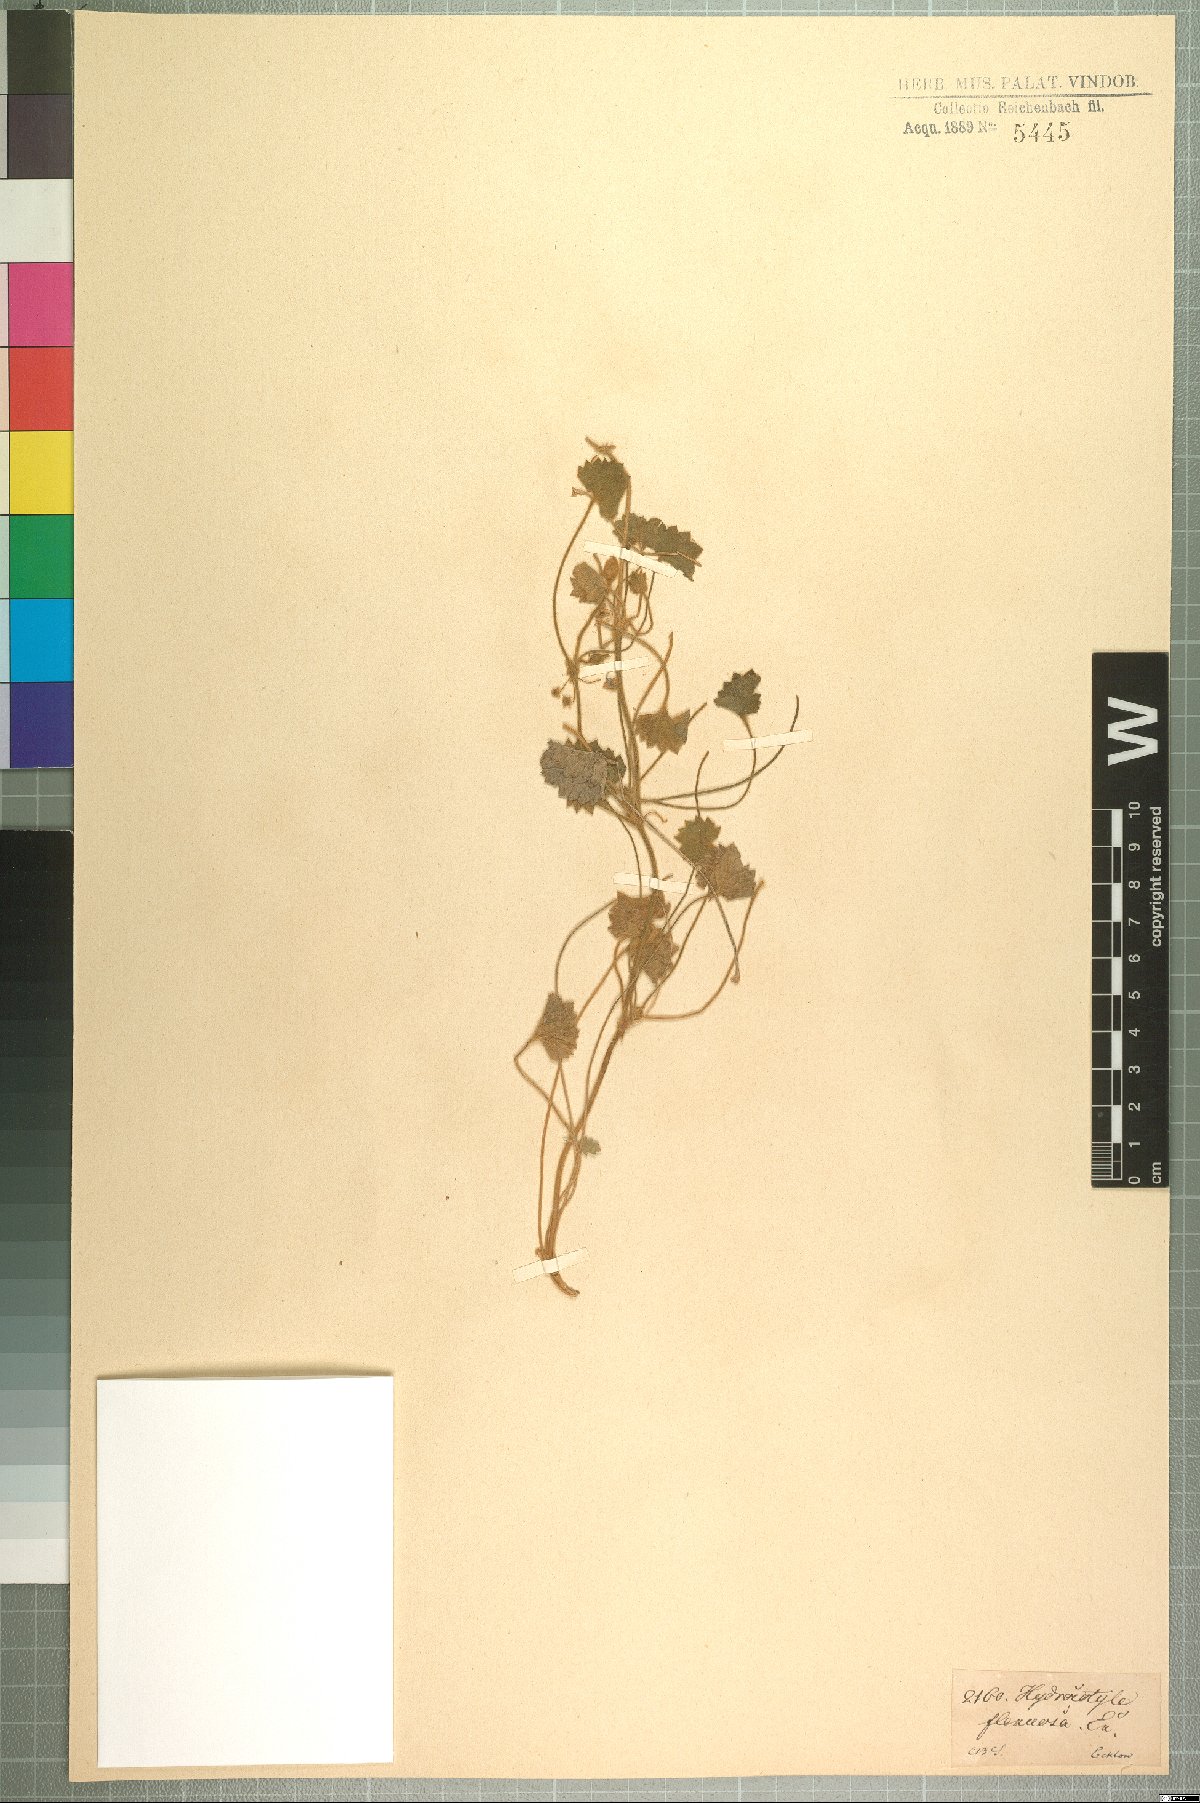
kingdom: Plantae
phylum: Tracheophyta
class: Magnoliopsida
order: Apiales
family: Apiaceae
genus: Centella
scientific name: Centella flexuosa
